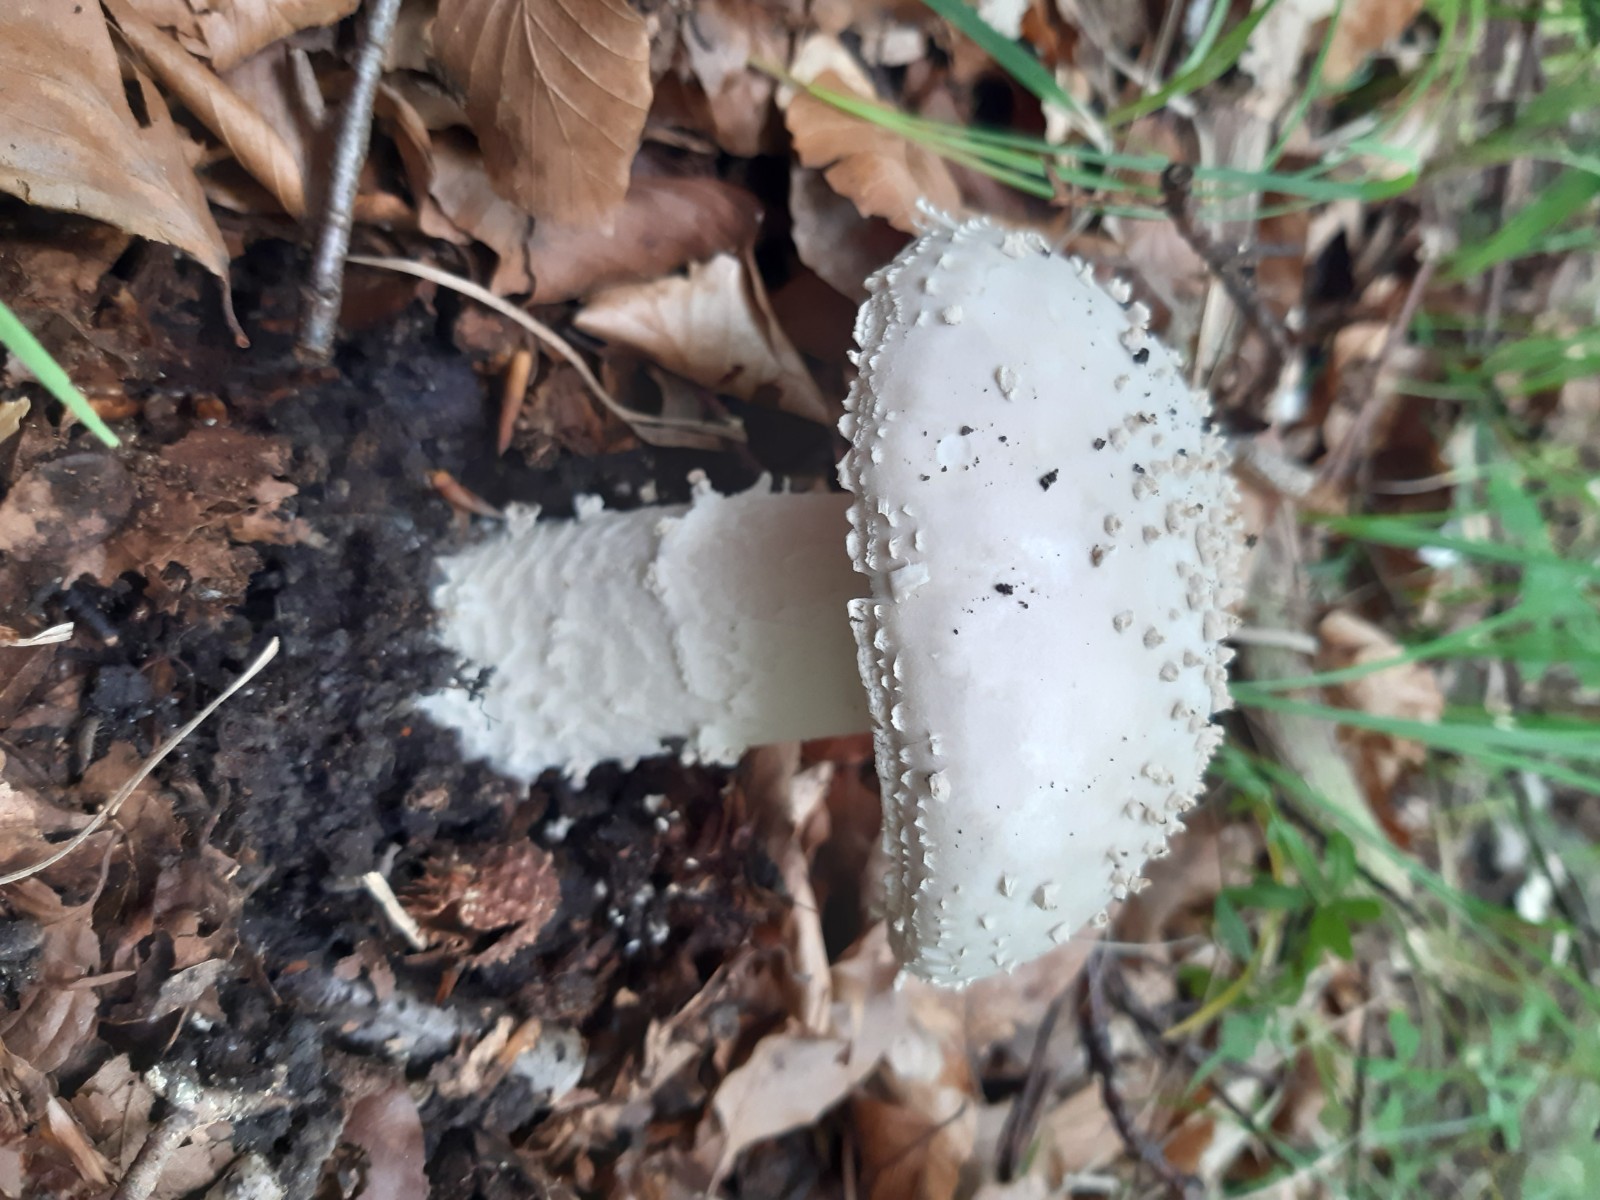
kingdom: Fungi
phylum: Basidiomycota
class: Agaricomycetes
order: Agaricales
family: Amanitaceae
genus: Aspidella
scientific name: Aspidella solitaria
